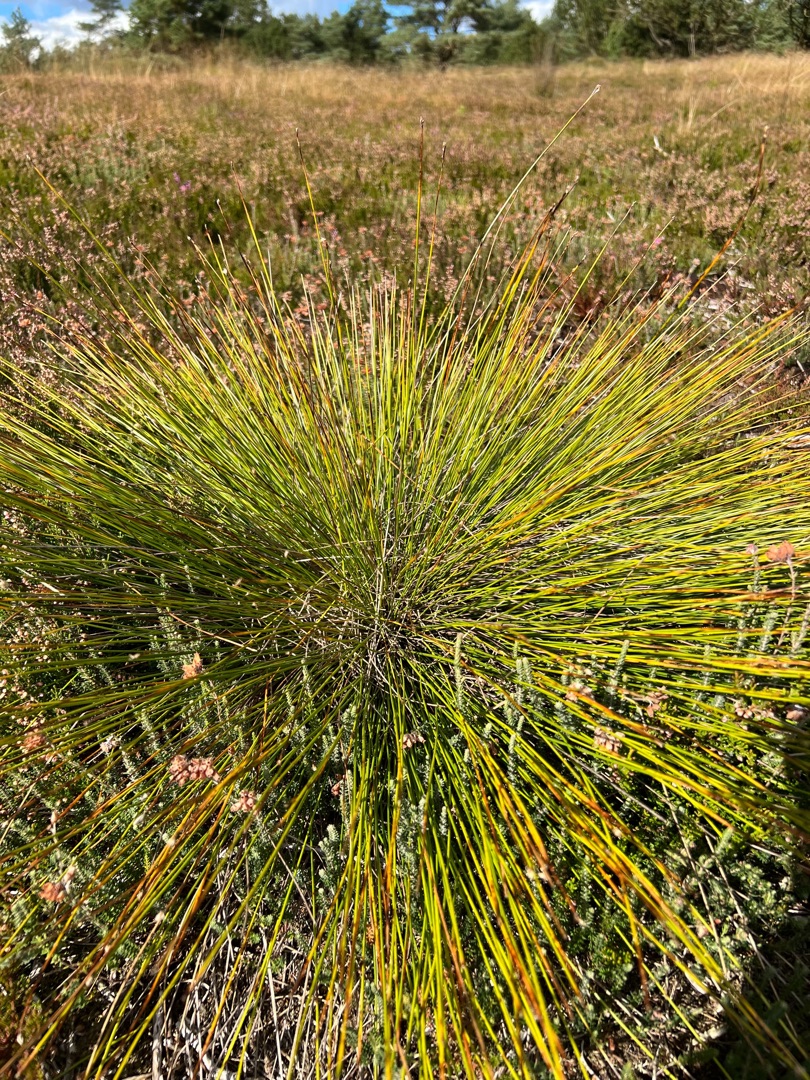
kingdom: Plantae
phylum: Tracheophyta
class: Liliopsida
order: Poales
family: Cyperaceae
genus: Trichophorum
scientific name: Trichophorum cespitosum
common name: Tuekogleaks
